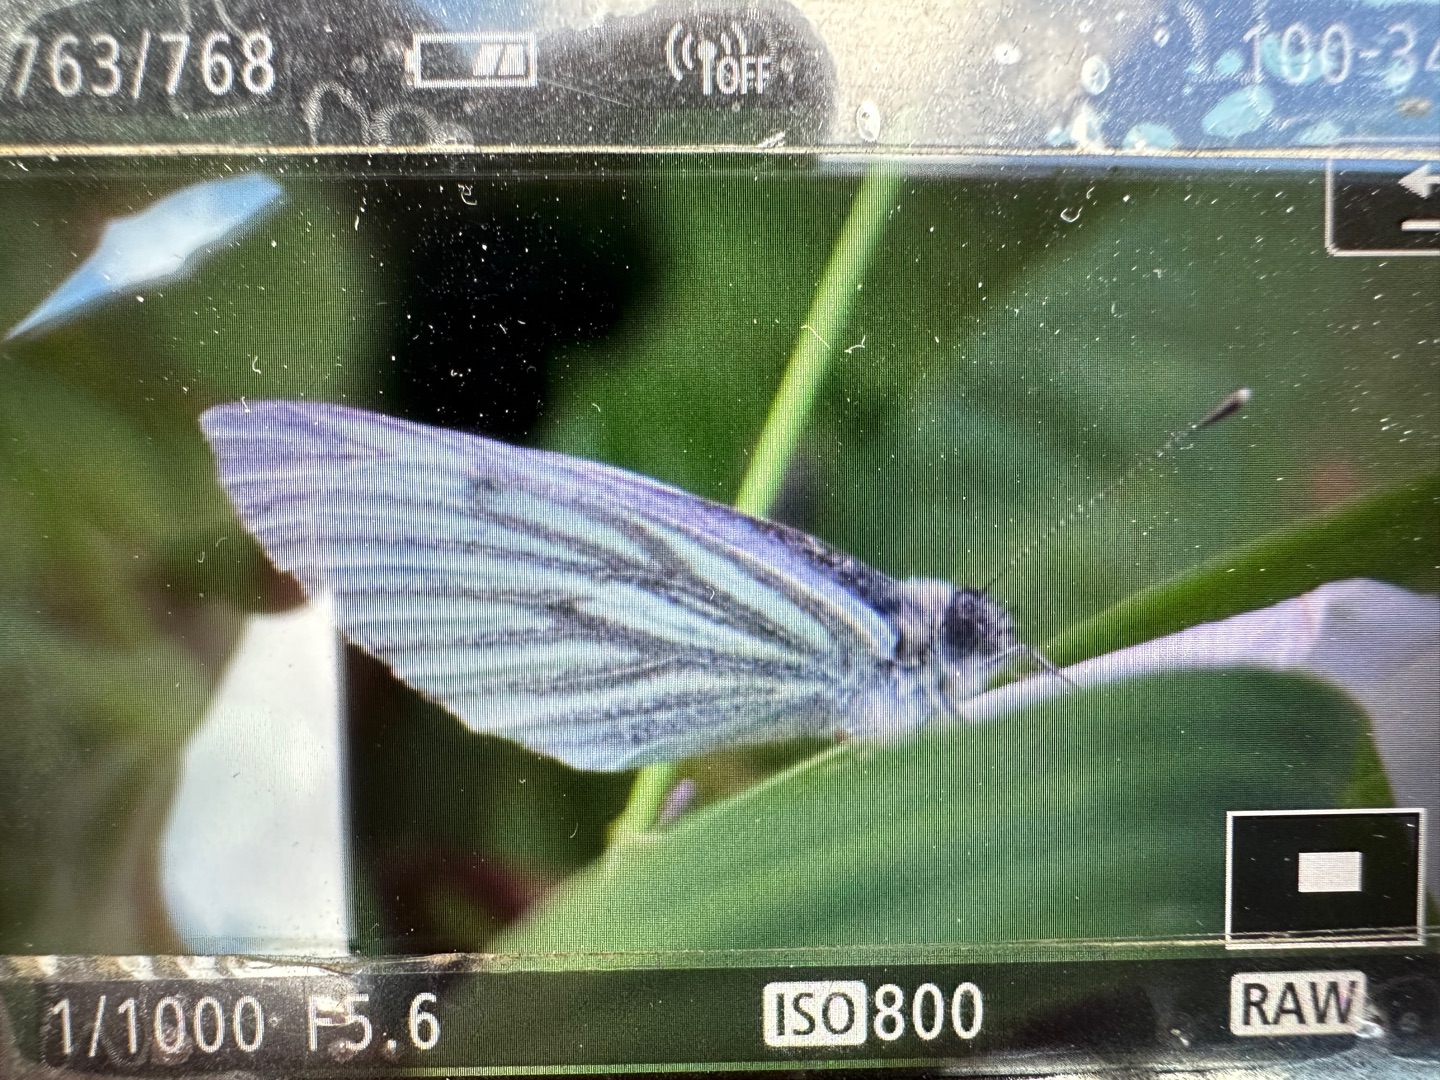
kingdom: Animalia
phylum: Arthropoda
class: Insecta
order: Lepidoptera
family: Pieridae
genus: Pieris
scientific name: Pieris napi
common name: Grønåret kålsommerfugl
